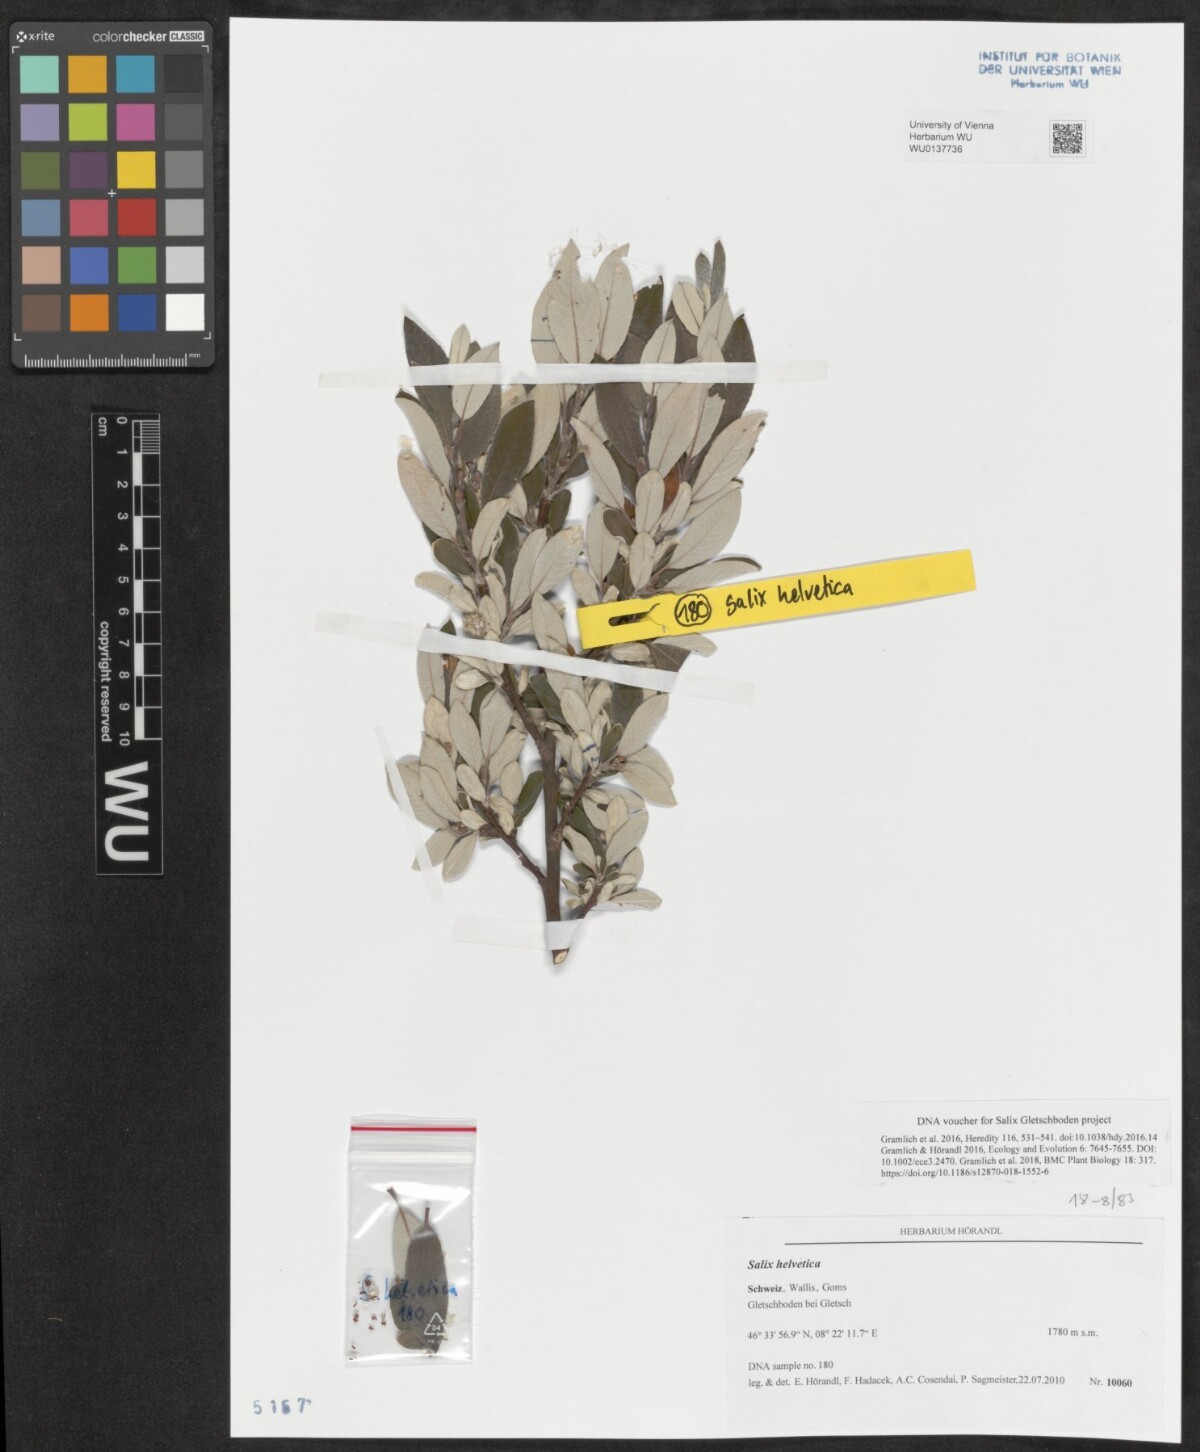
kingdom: Plantae
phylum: Tracheophyta
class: Magnoliopsida
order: Malpighiales
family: Salicaceae
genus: Salix
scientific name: Salix helvetica
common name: Swiss willow
